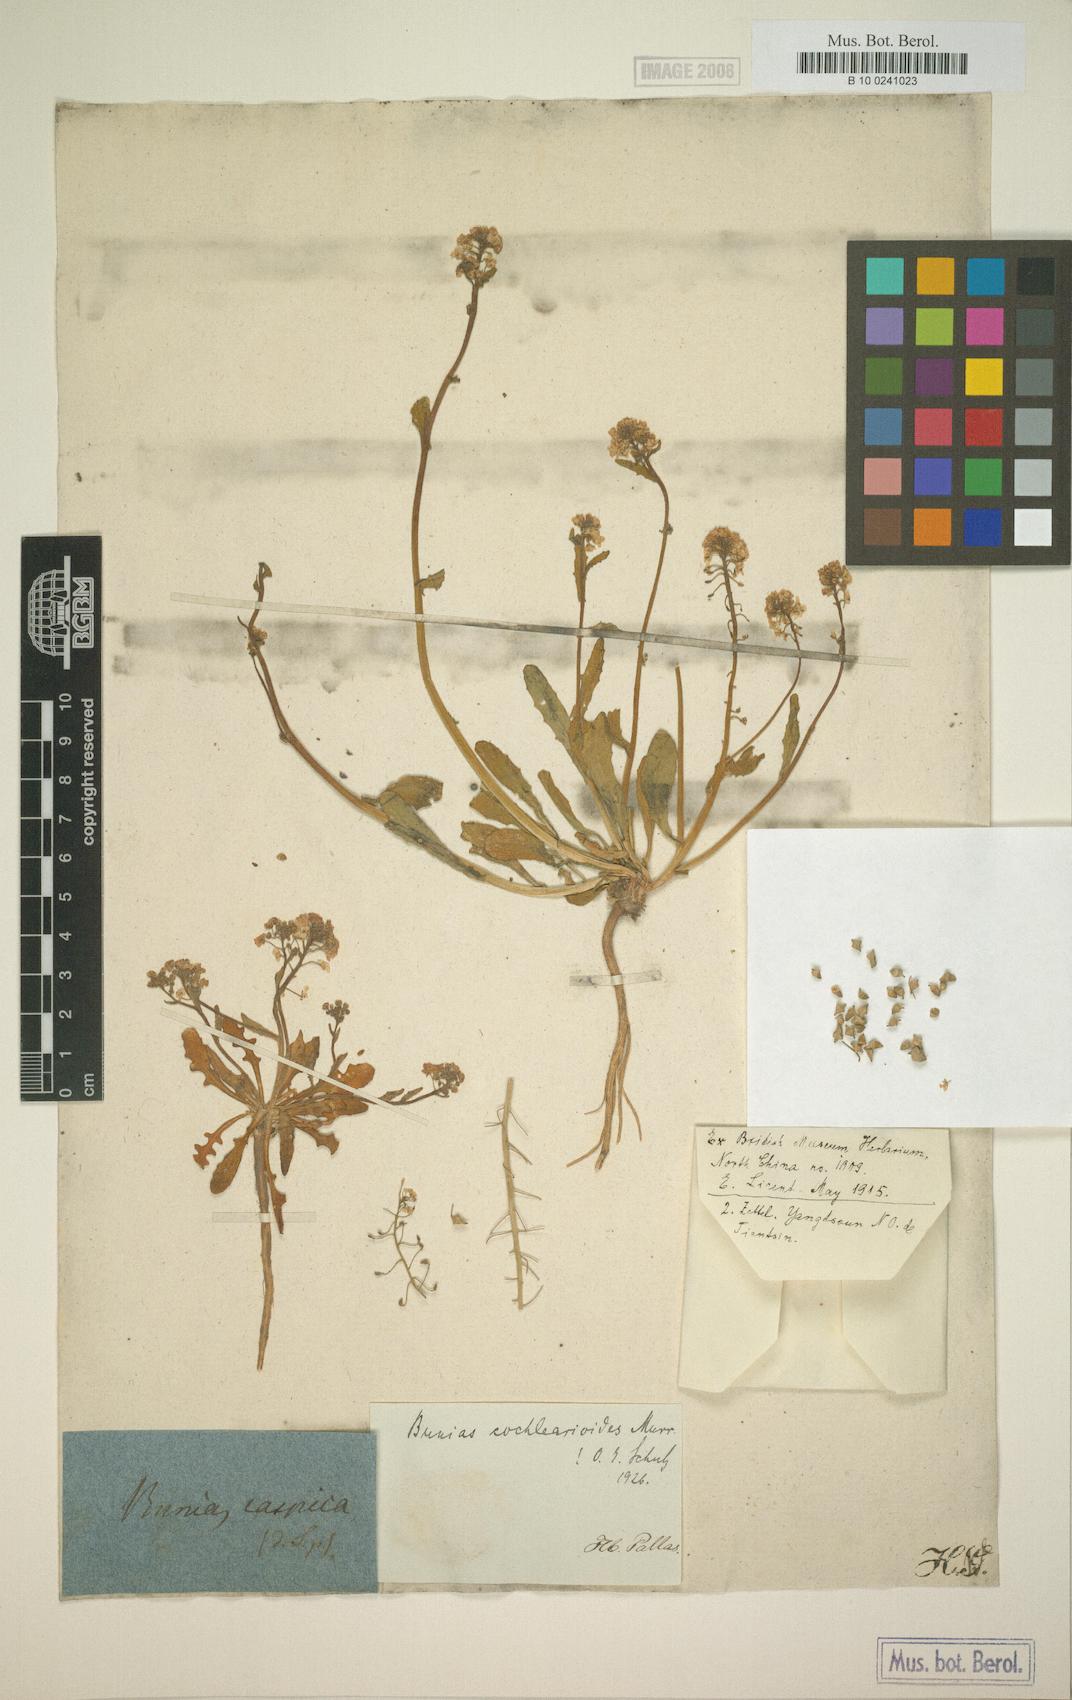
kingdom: Plantae
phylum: Tracheophyta
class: Magnoliopsida
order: Brassicales
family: Brassicaceae
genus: Leiocarpaea
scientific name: Leiocarpaea cochlearioides
